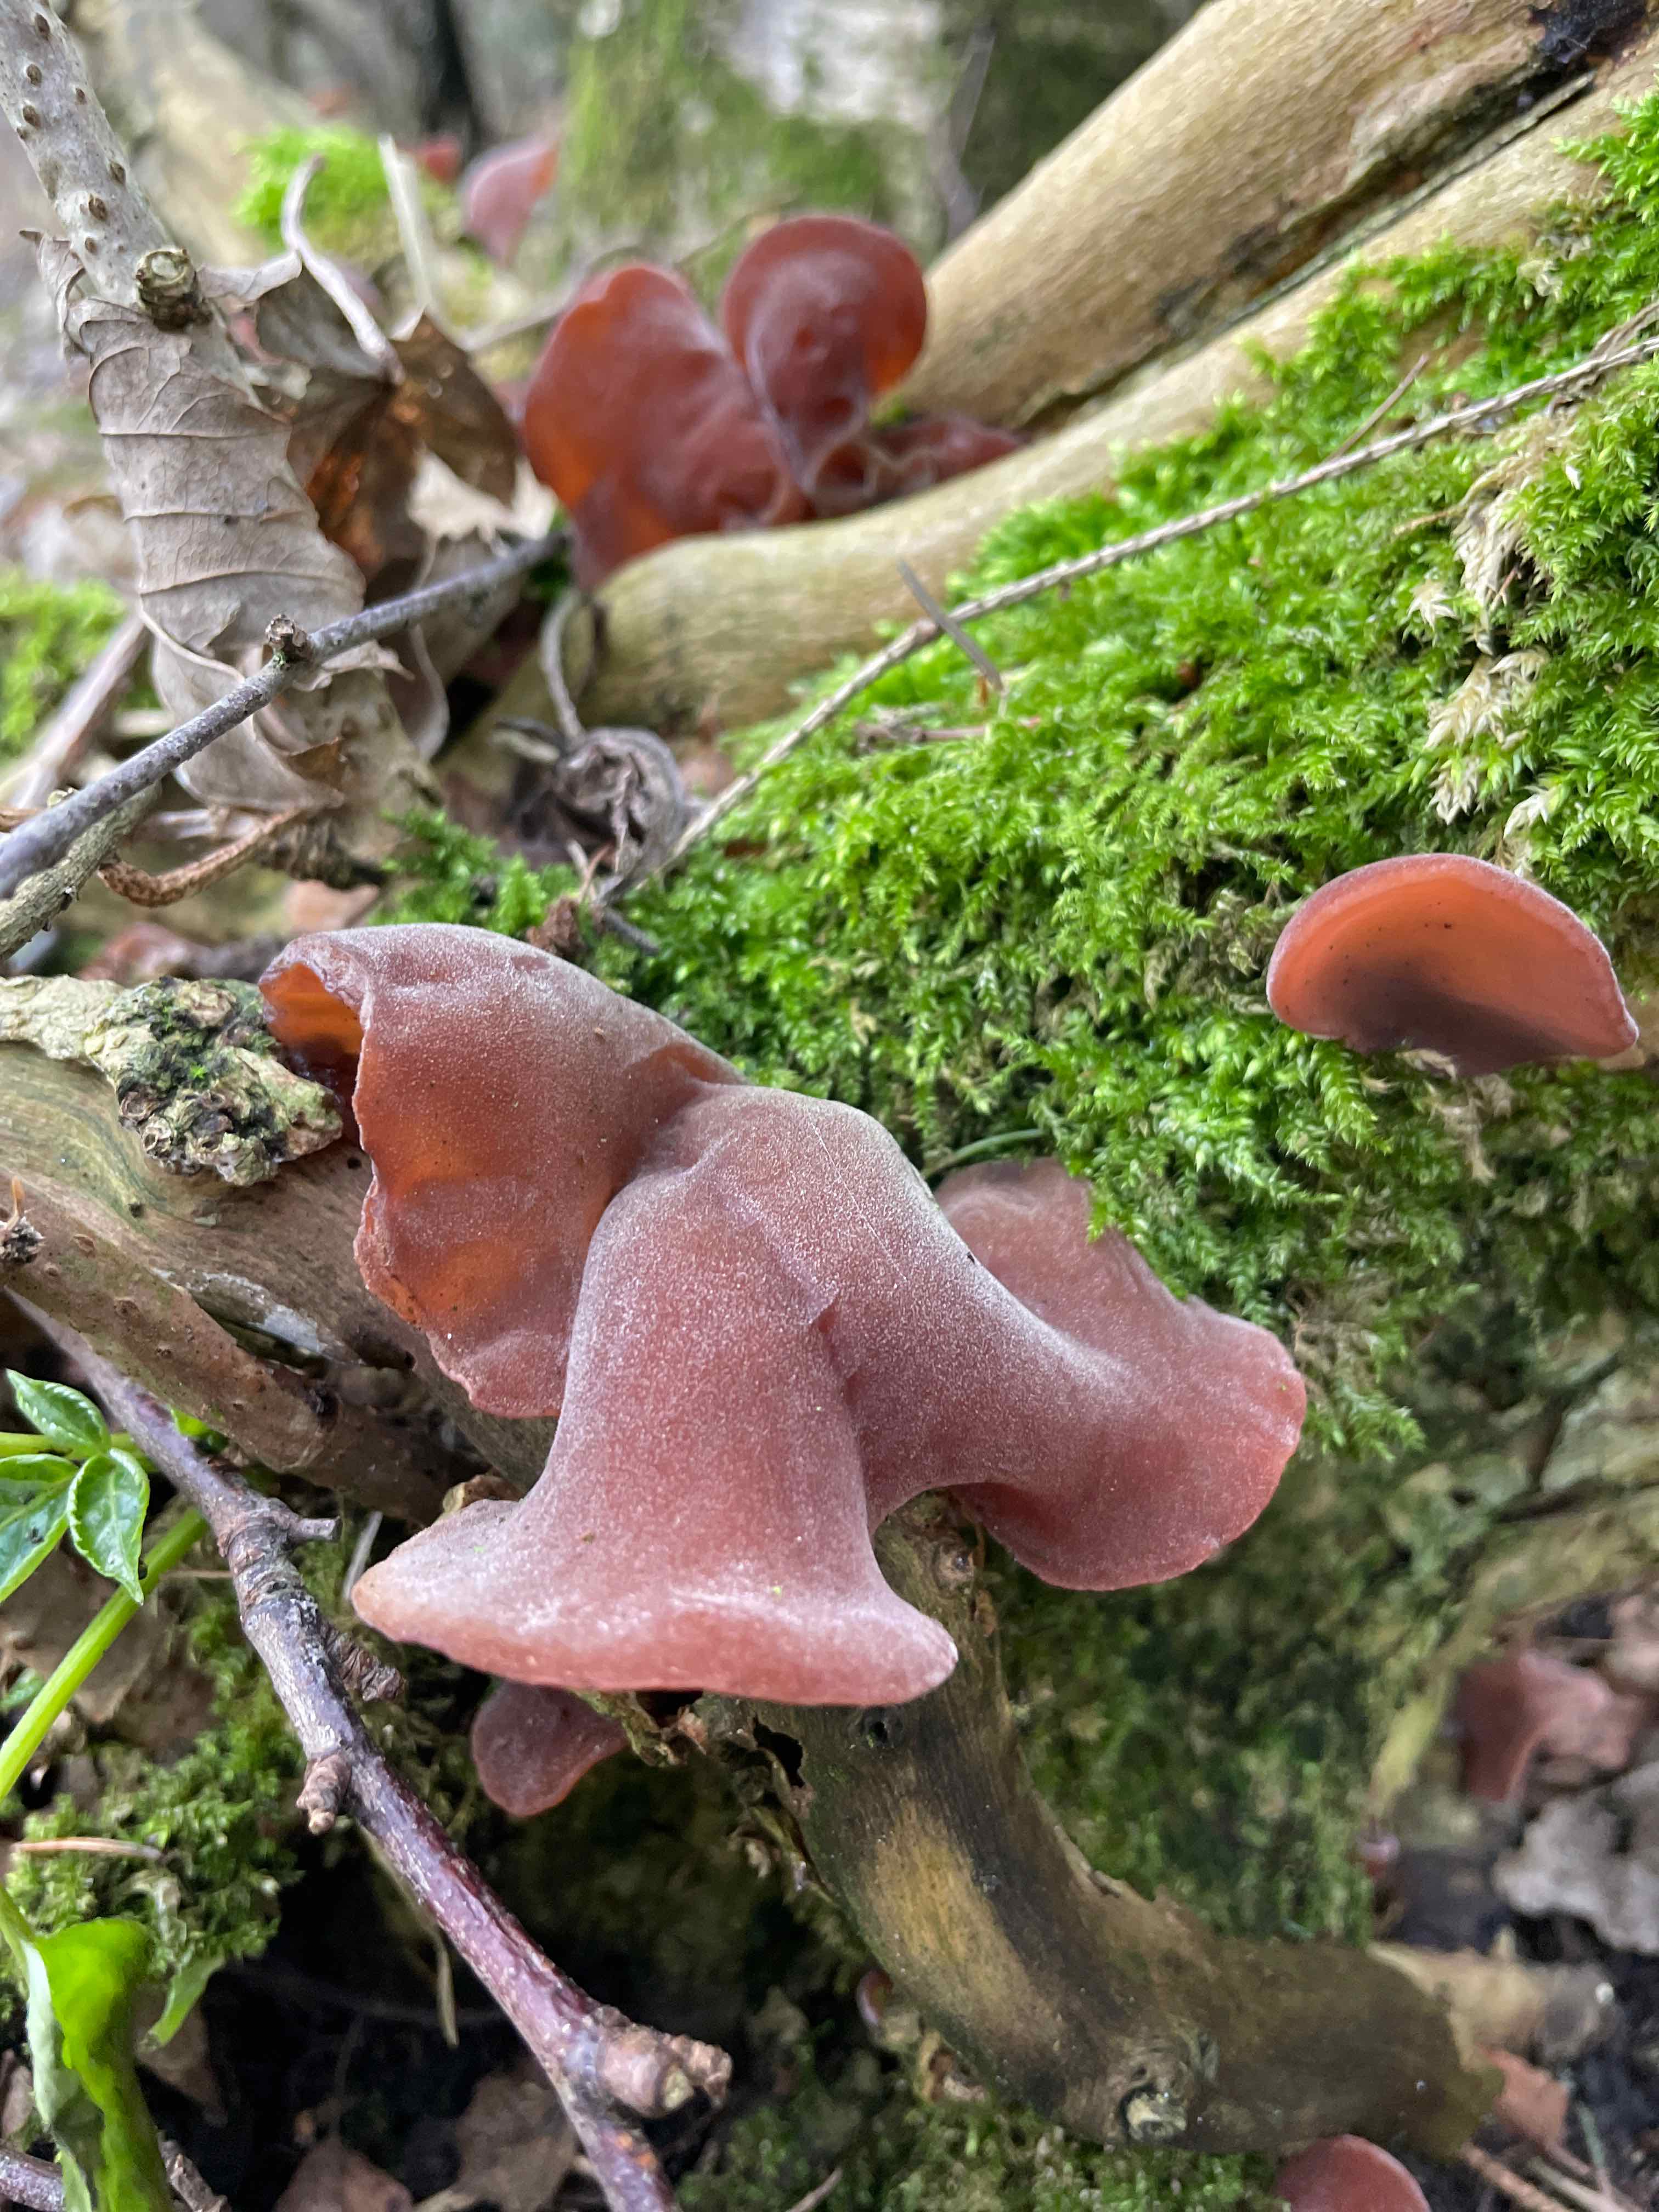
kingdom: Fungi
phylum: Basidiomycota
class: Agaricomycetes
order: Auriculariales
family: Auriculariaceae
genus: Auricularia
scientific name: Auricularia auricula-judae
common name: almindelig judasøre
